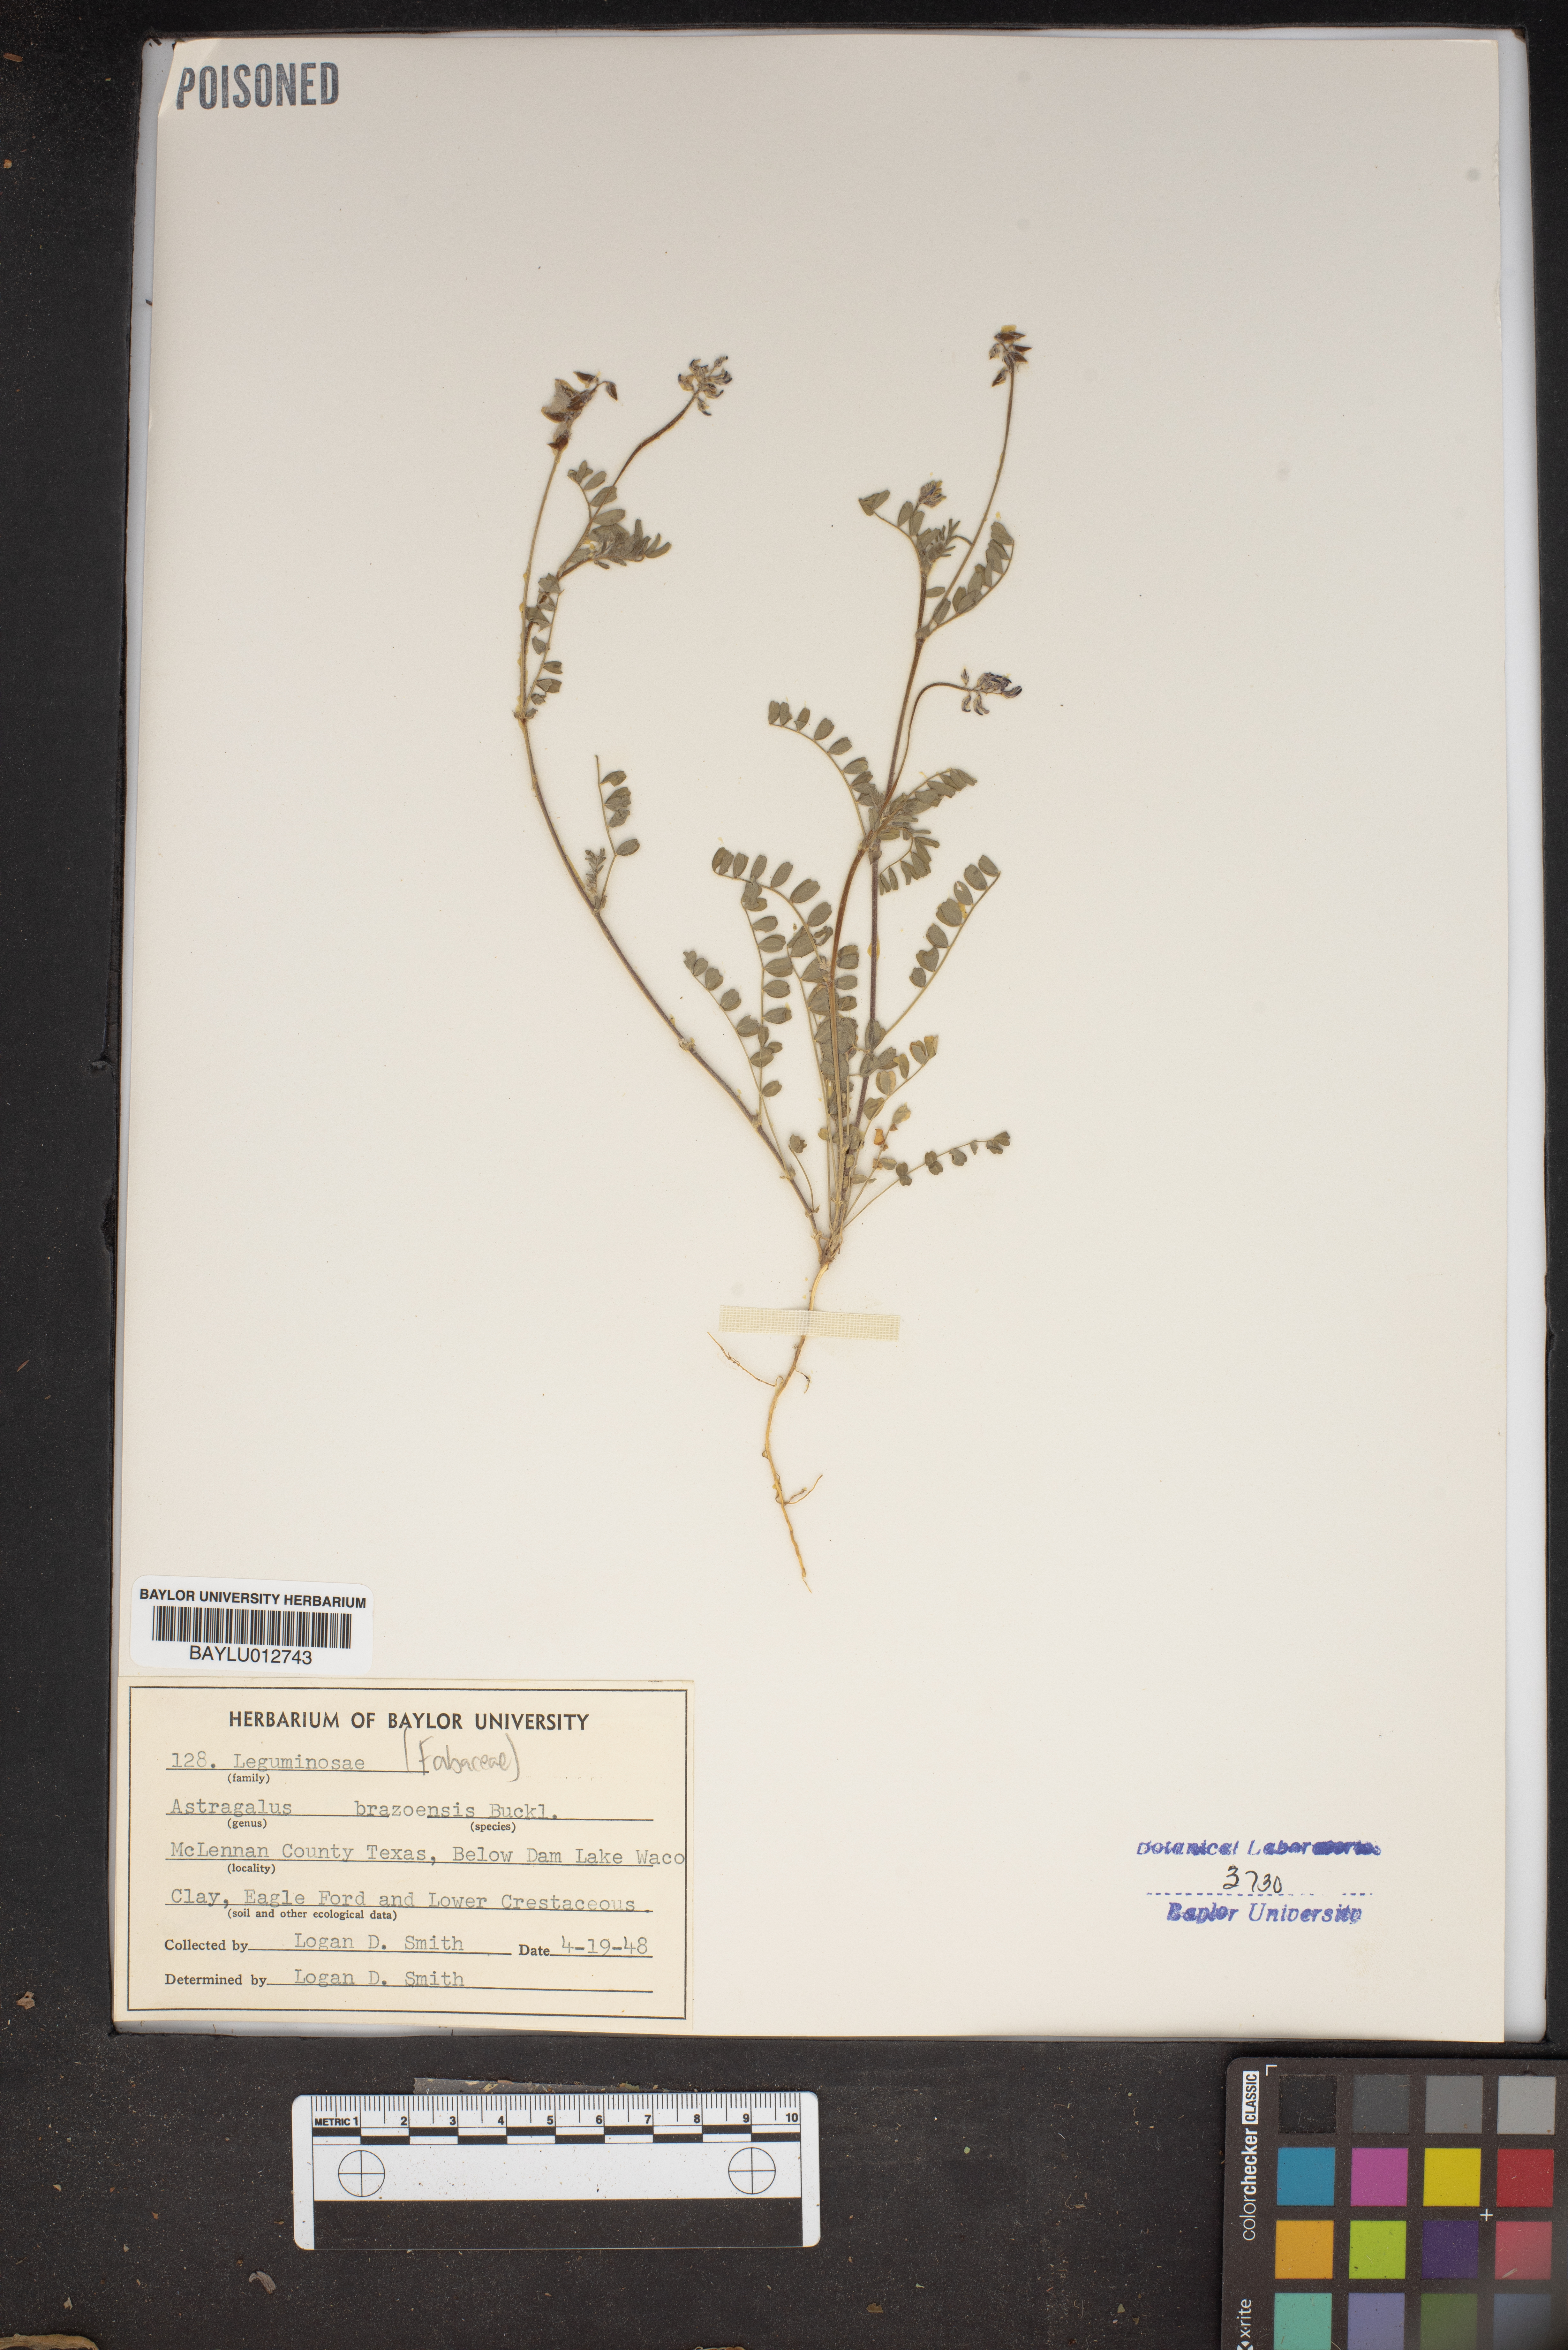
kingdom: Plantae
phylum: Tracheophyta
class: Magnoliopsida
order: Fabales
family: Fabaceae
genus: Astragalus
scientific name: Astragalus brazoensis
